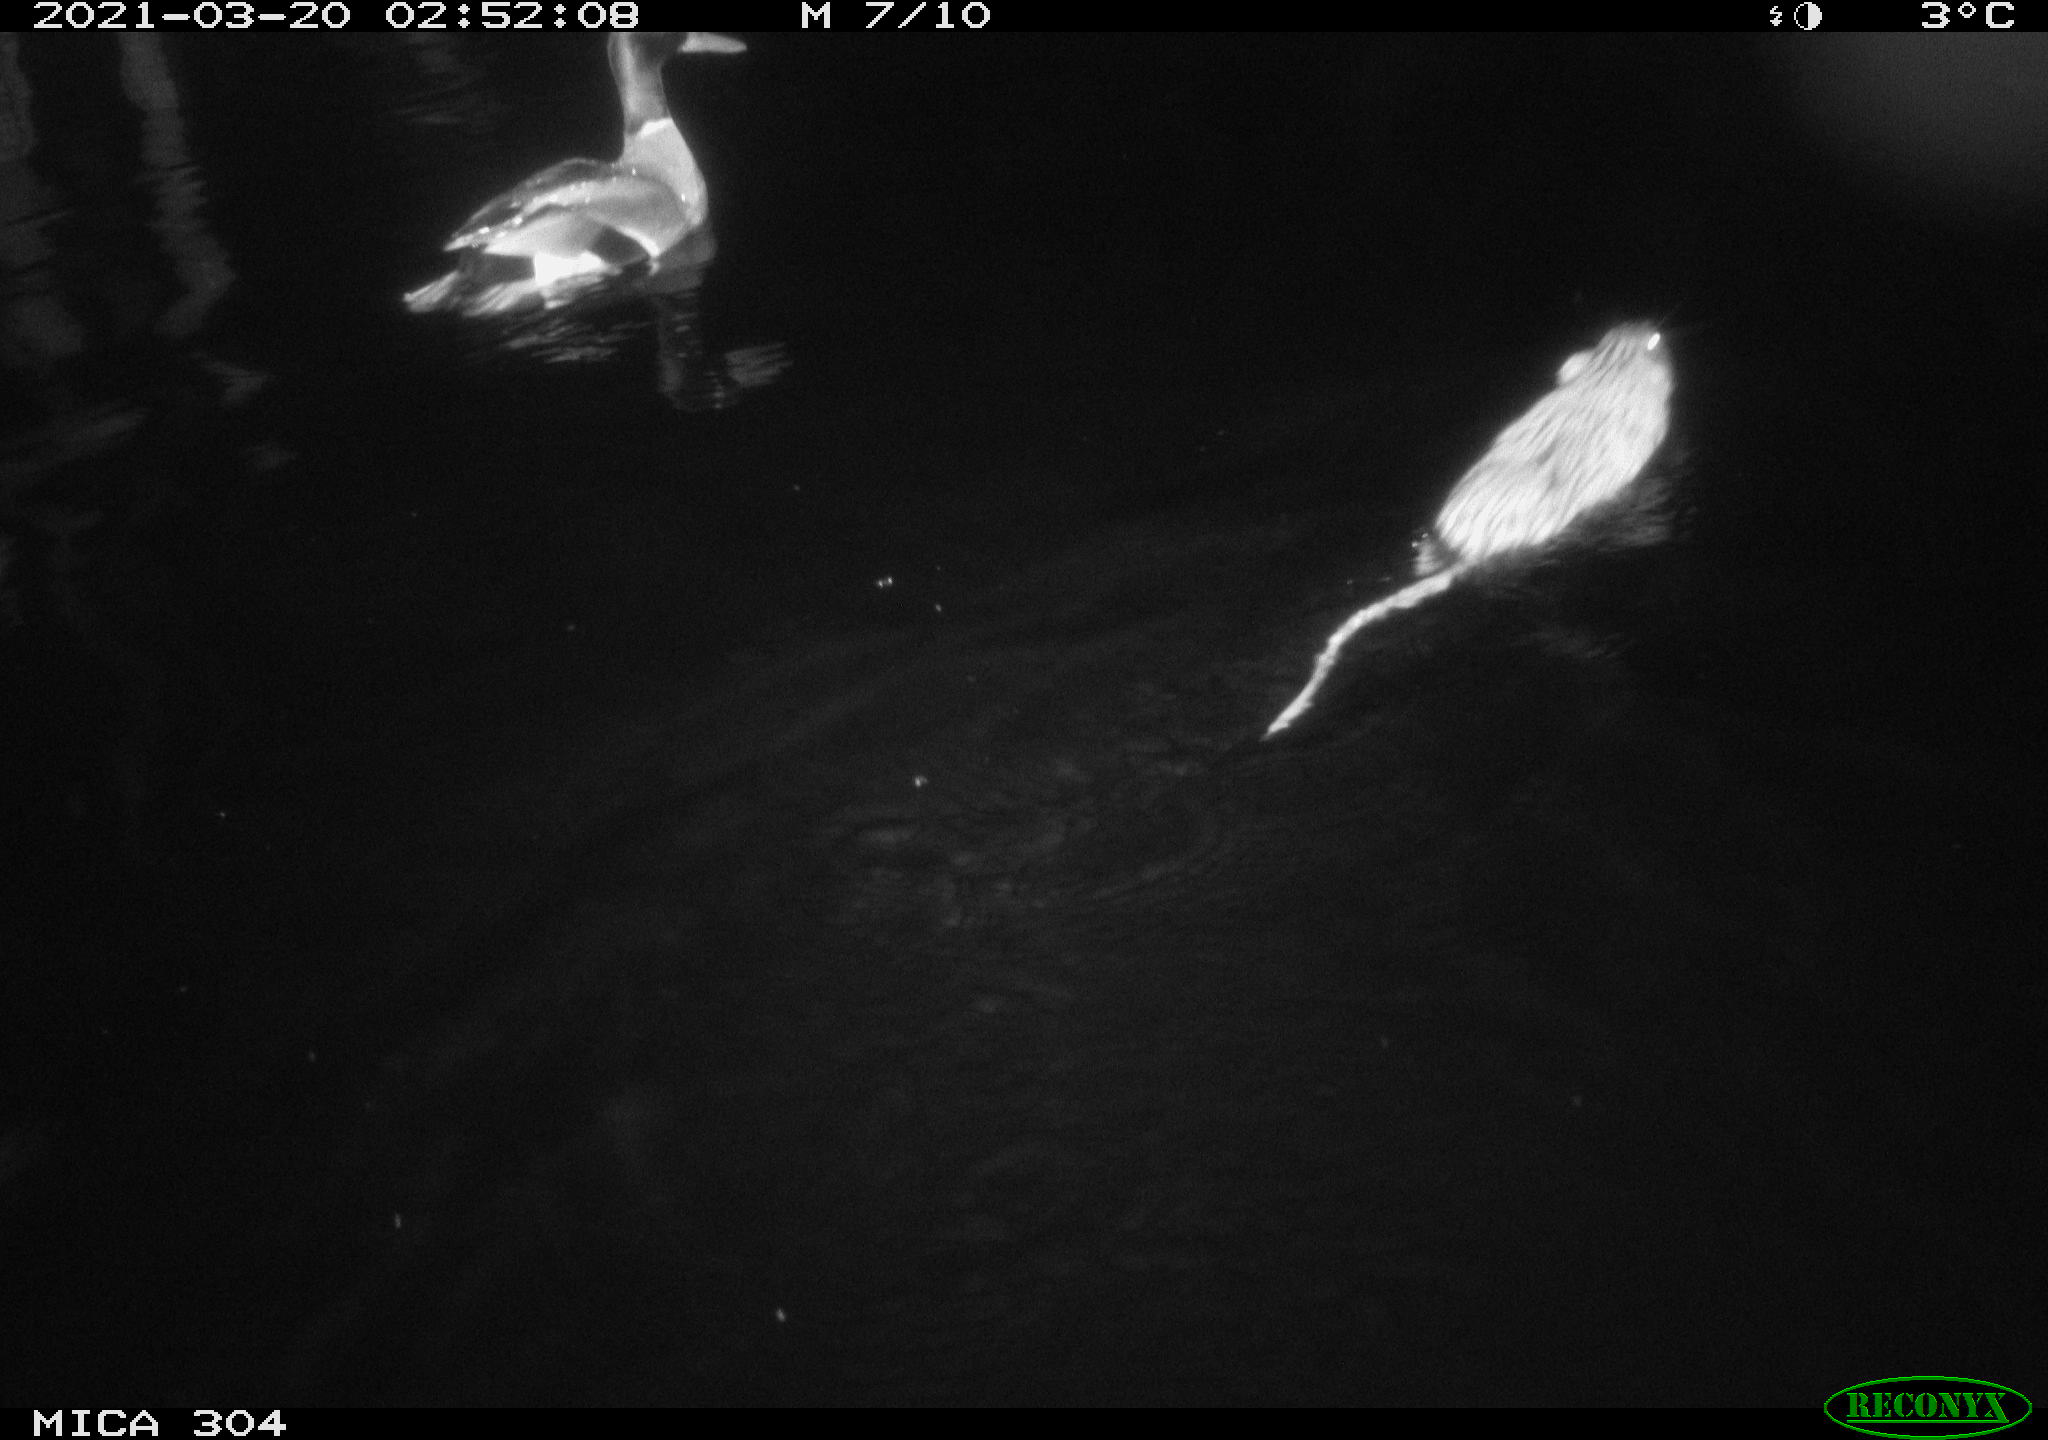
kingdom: Animalia
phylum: Chordata
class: Mammalia
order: Rodentia
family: Cricetidae
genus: Ondatra
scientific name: Ondatra zibethicus
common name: Muskrat
